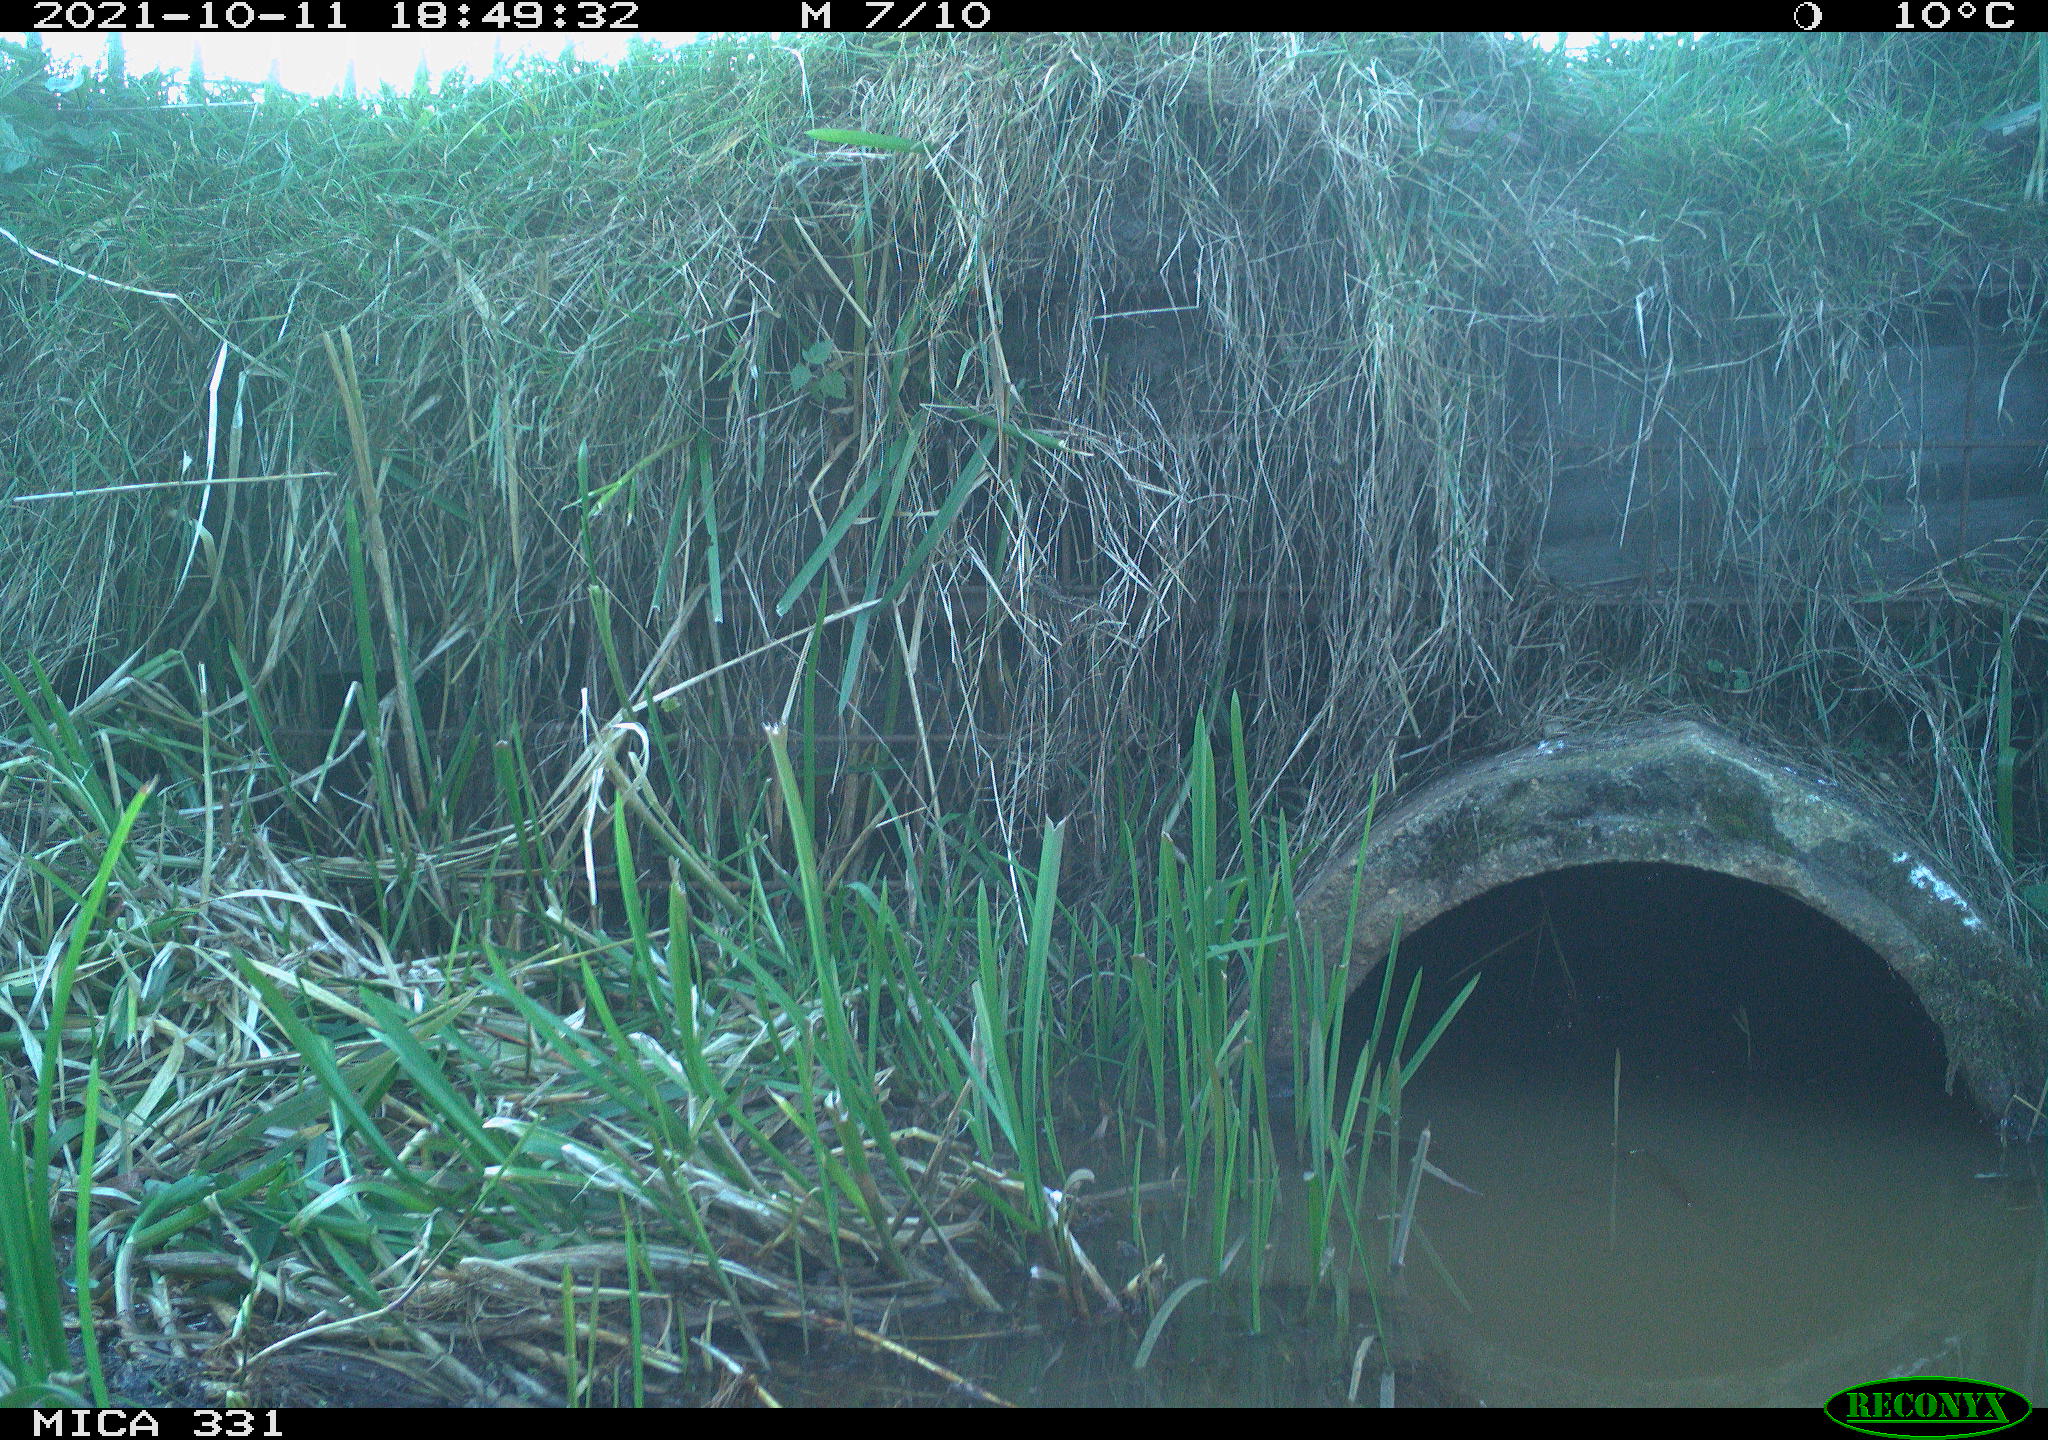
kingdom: Animalia
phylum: Chordata
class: Mammalia
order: Rodentia
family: Muridae
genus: Rattus
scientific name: Rattus norvegicus
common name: Brown rat
